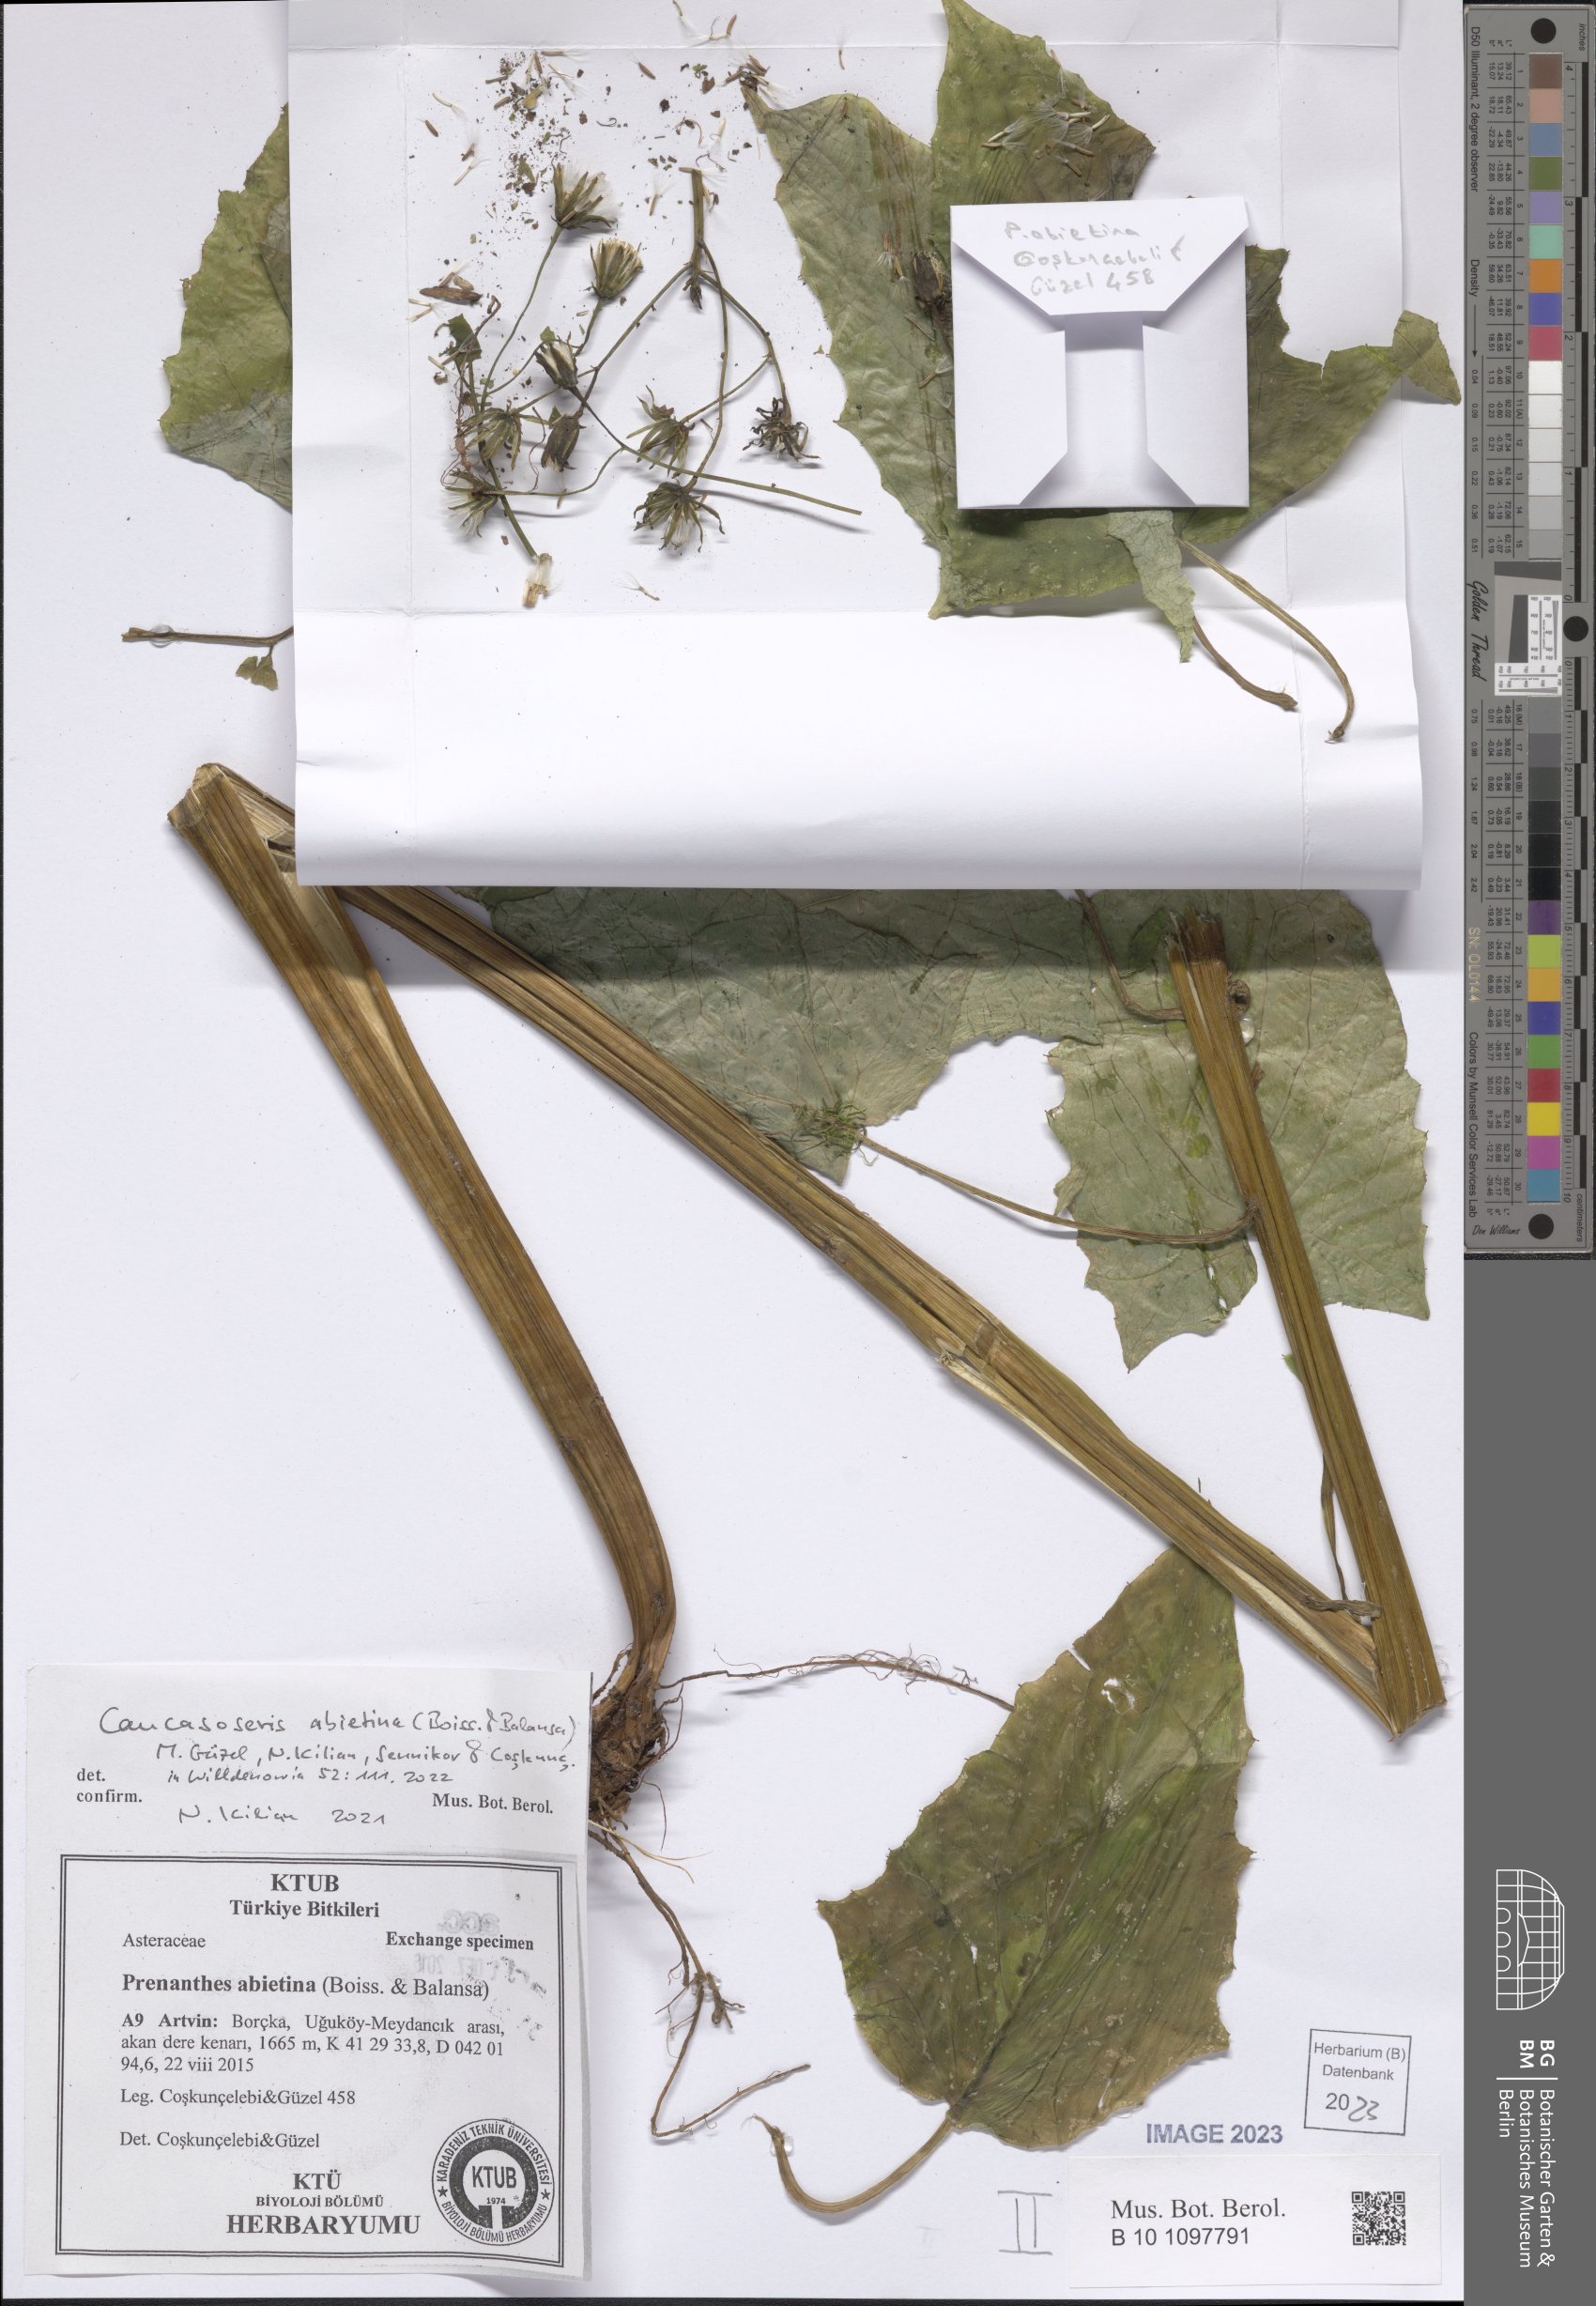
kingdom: Plantae
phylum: Tracheophyta
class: Magnoliopsida
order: Asterales
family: Asteraceae
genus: Caucasoseris
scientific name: Caucasoseris abietina
